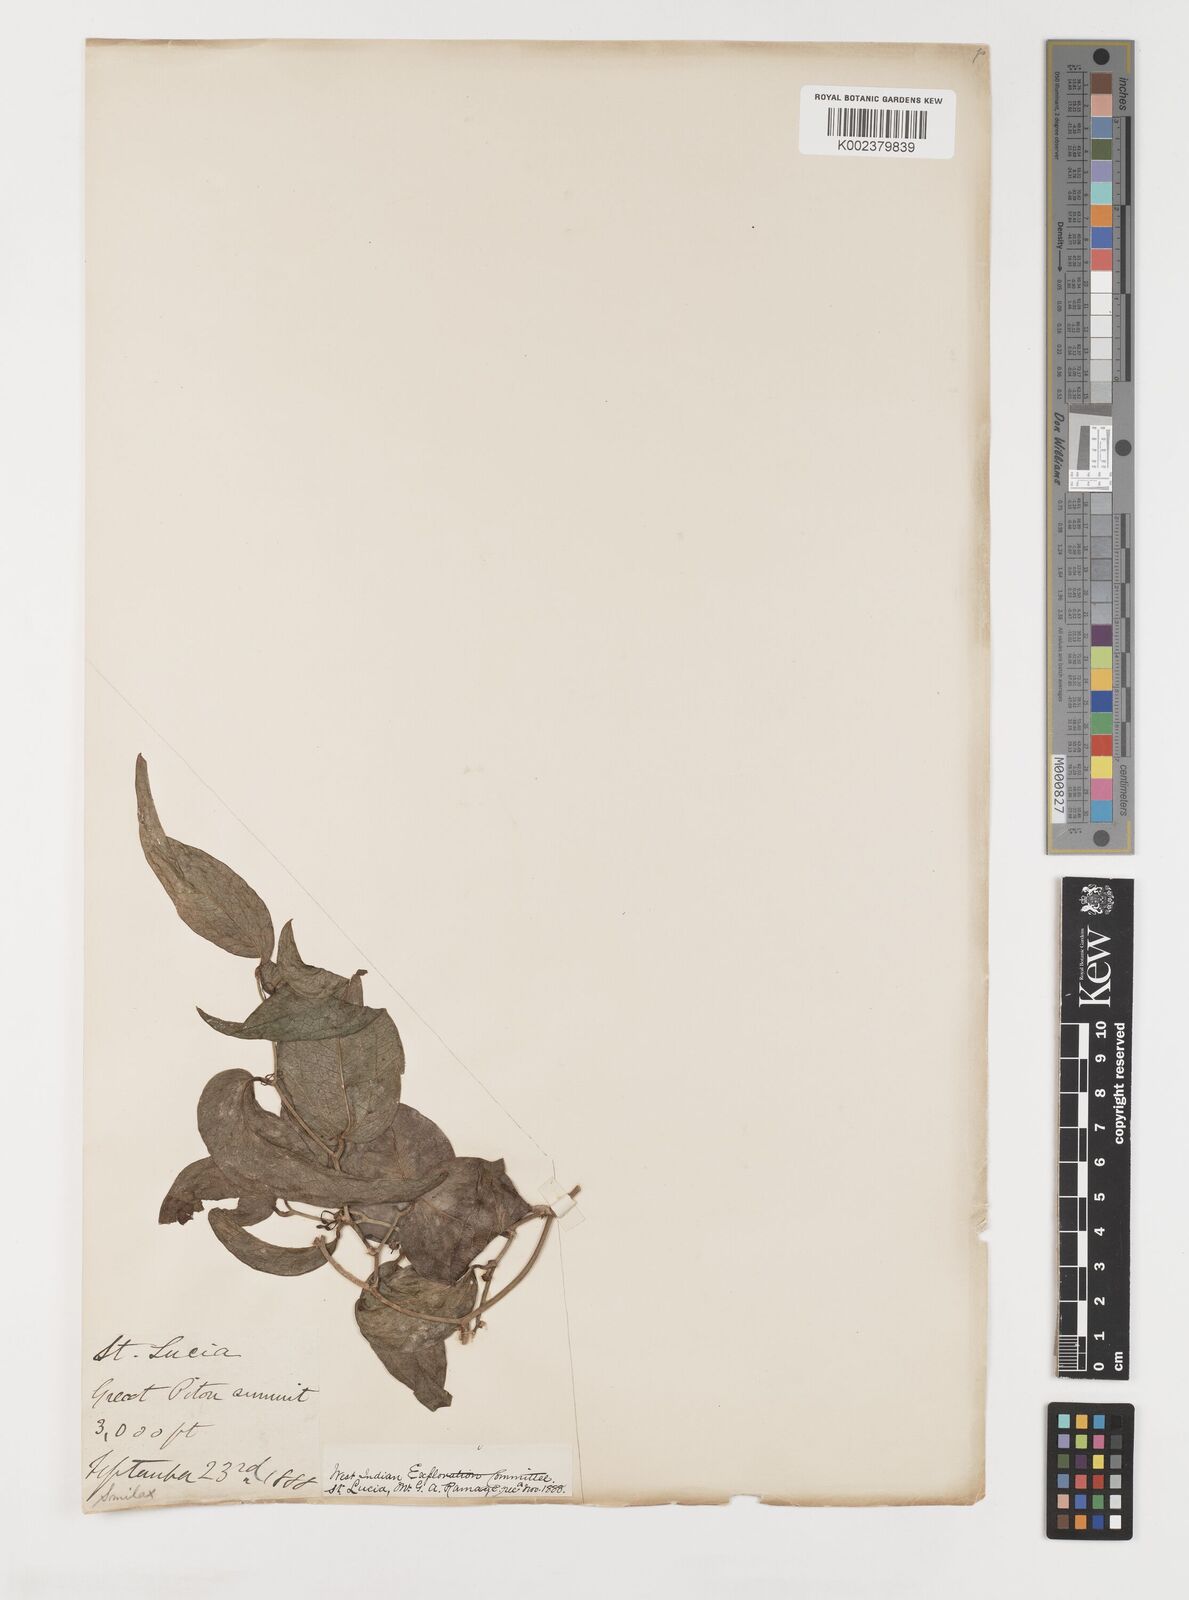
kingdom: Plantae
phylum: Tracheophyta
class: Liliopsida
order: Liliales
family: Smilacaceae
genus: Smilax
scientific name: Smilax
